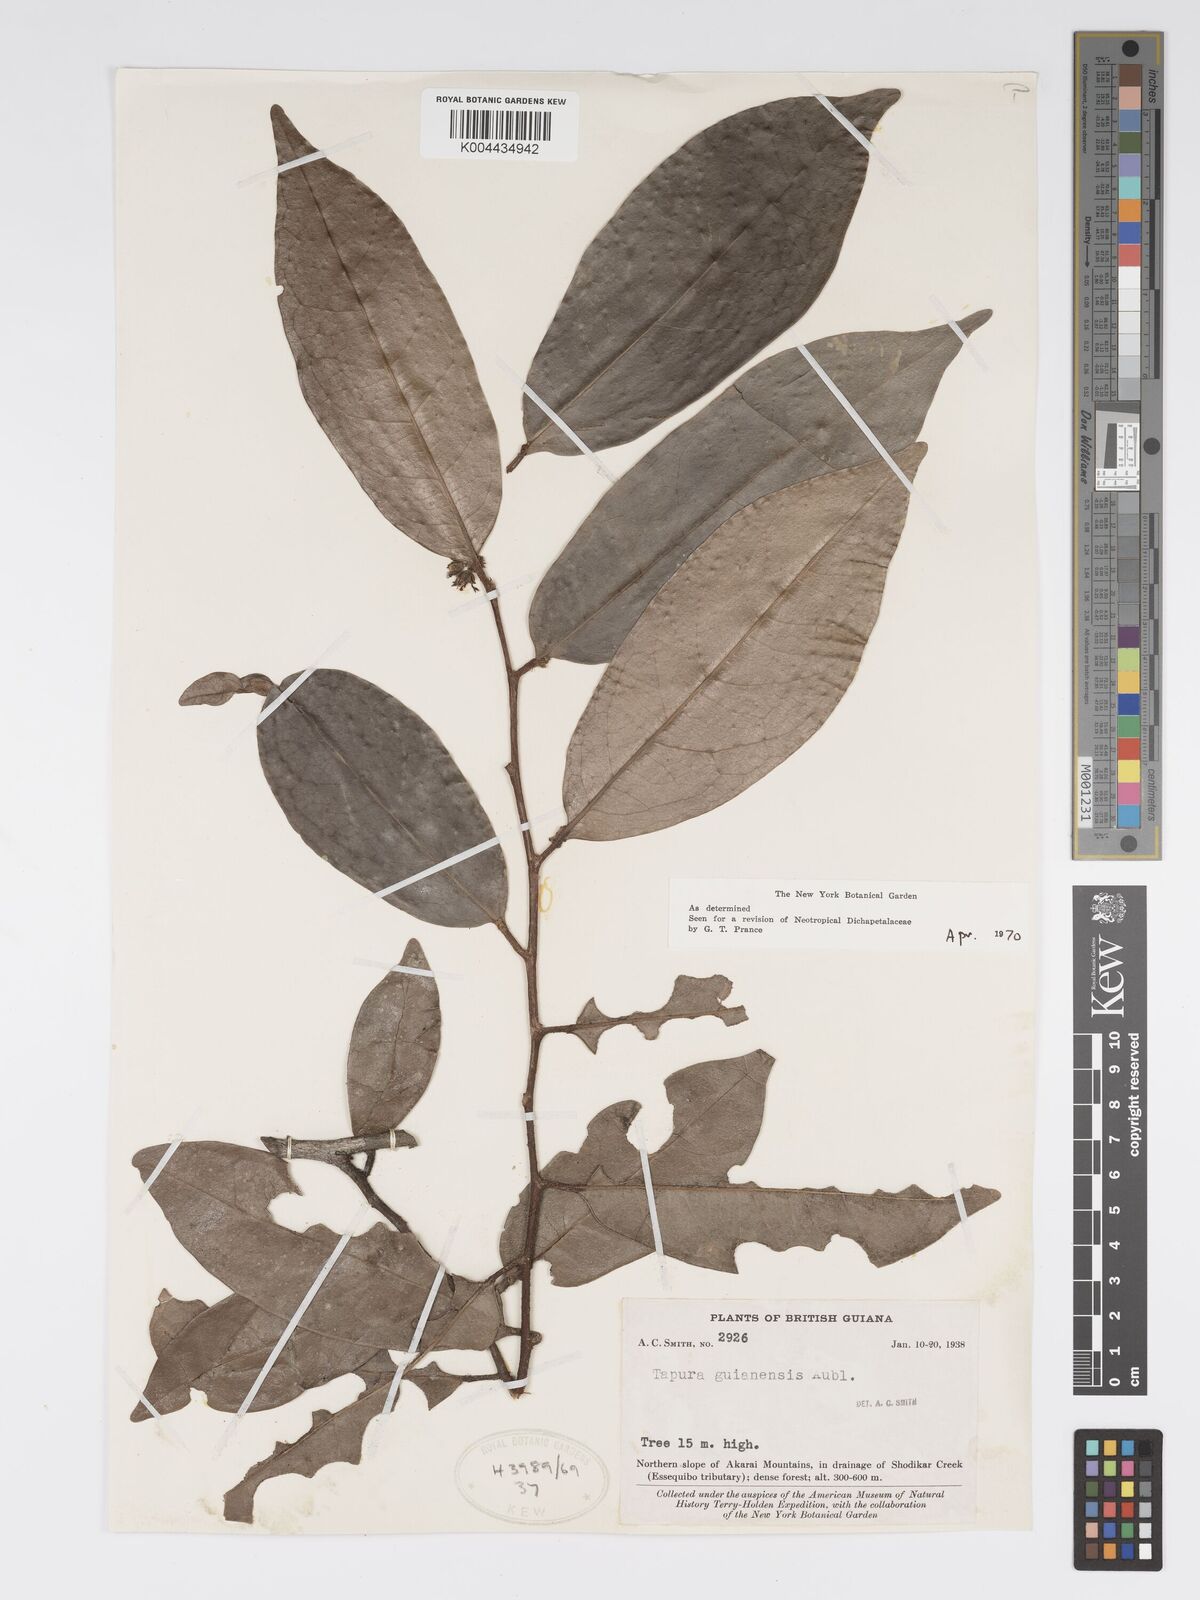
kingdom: Plantae
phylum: Tracheophyta
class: Magnoliopsida
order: Malpighiales
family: Dichapetalaceae
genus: Tapura
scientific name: Tapura guianensis
